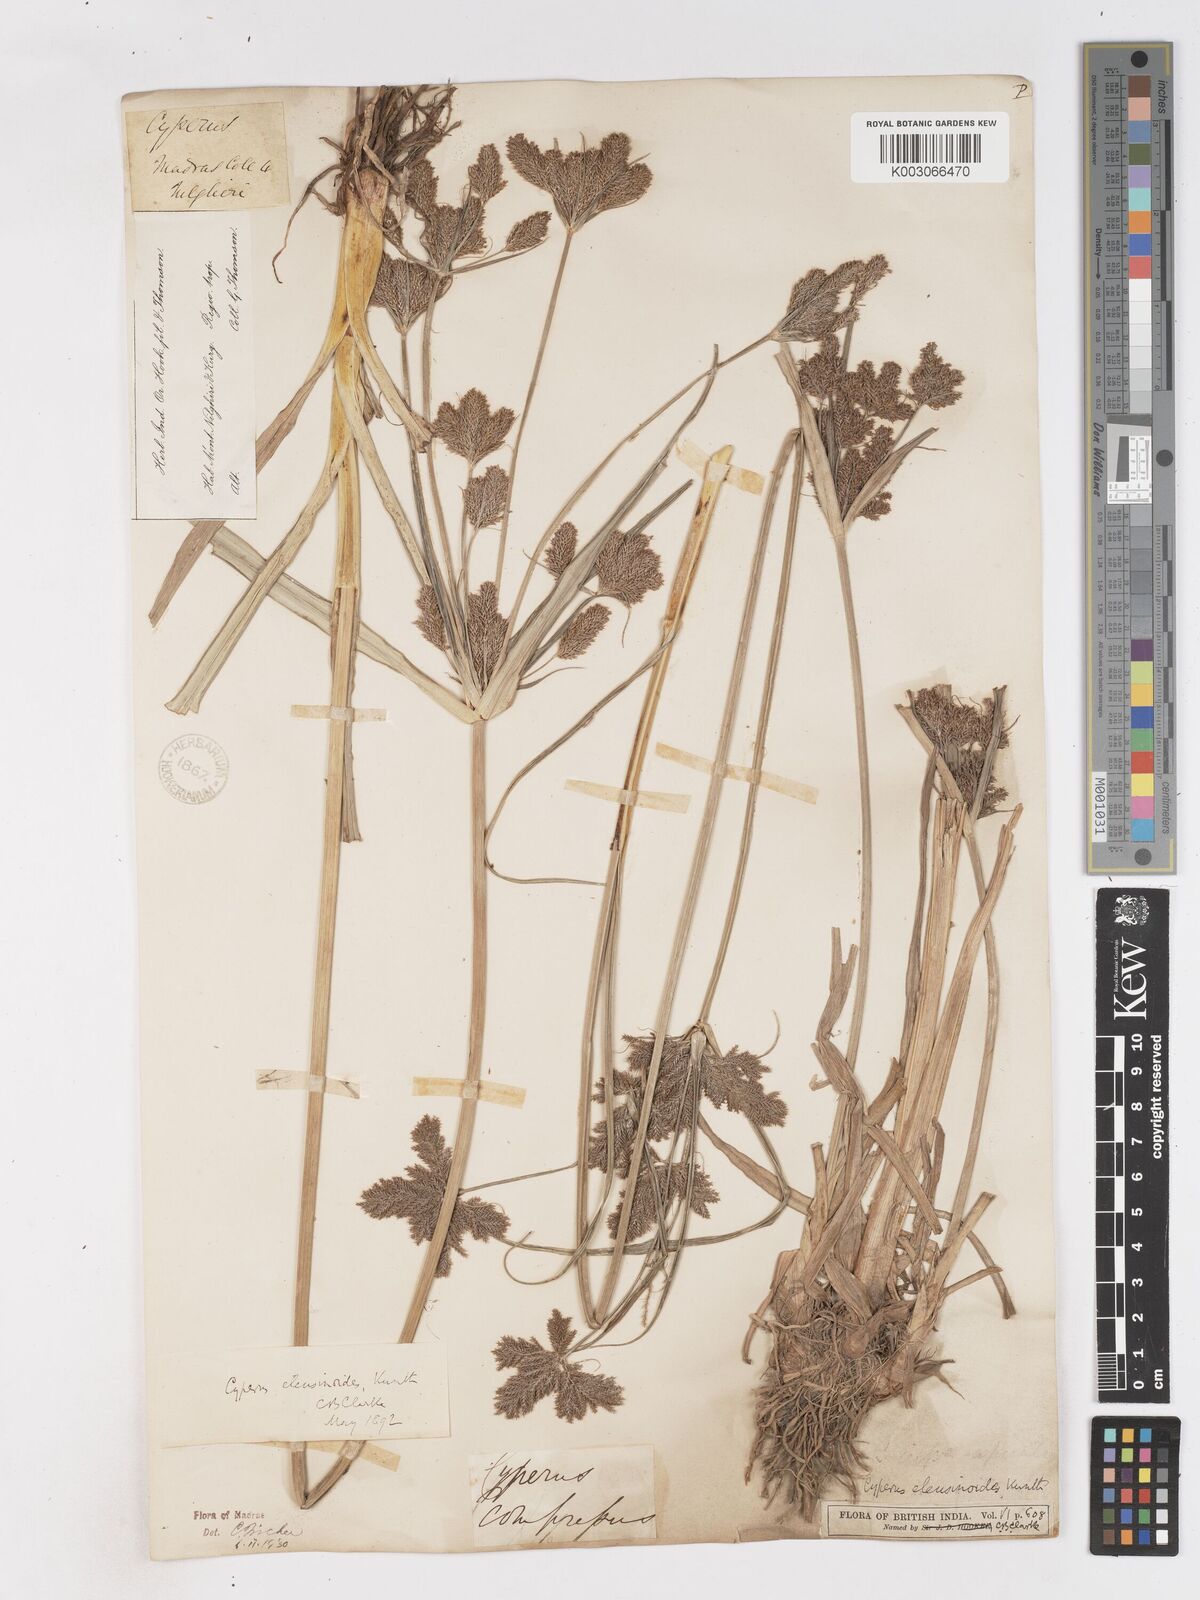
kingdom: Plantae
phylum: Tracheophyta
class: Liliopsida
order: Poales
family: Cyperaceae
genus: Cyperus
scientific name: Cyperus nutans
